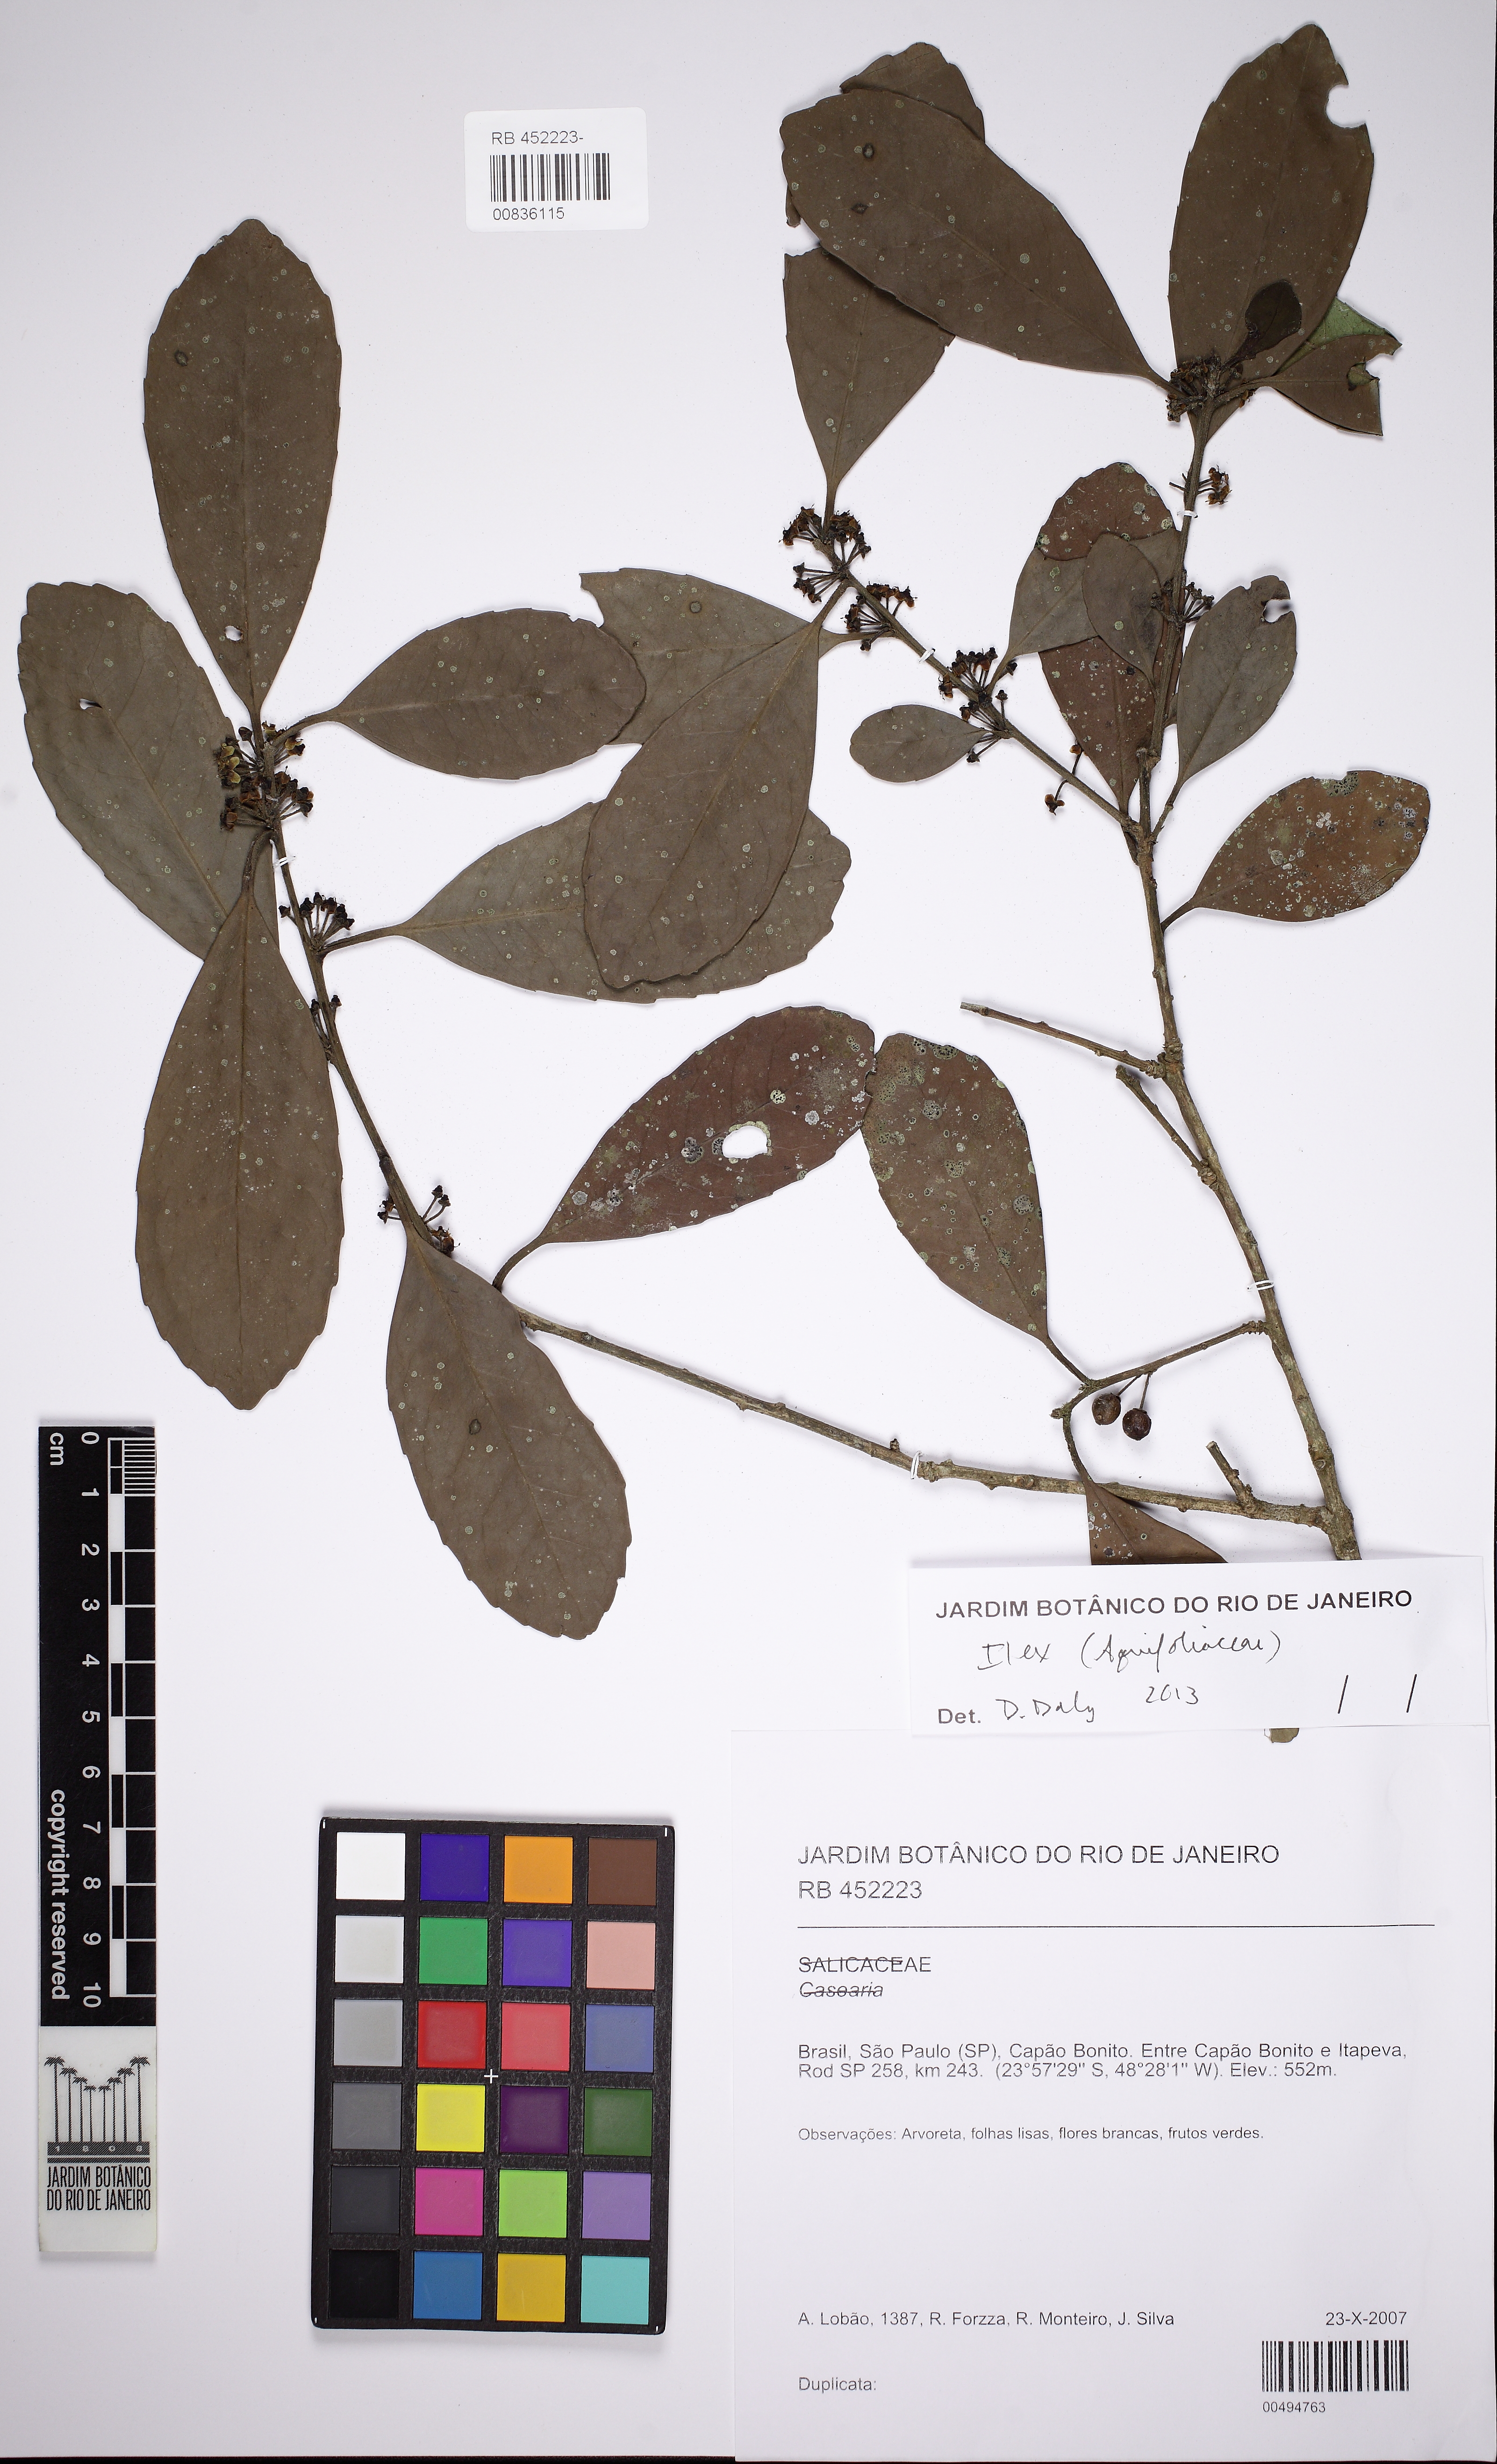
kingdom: Plantae
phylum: Tracheophyta
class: Magnoliopsida
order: Aquifoliales
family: Aquifoliaceae
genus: Ilex
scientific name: Ilex
